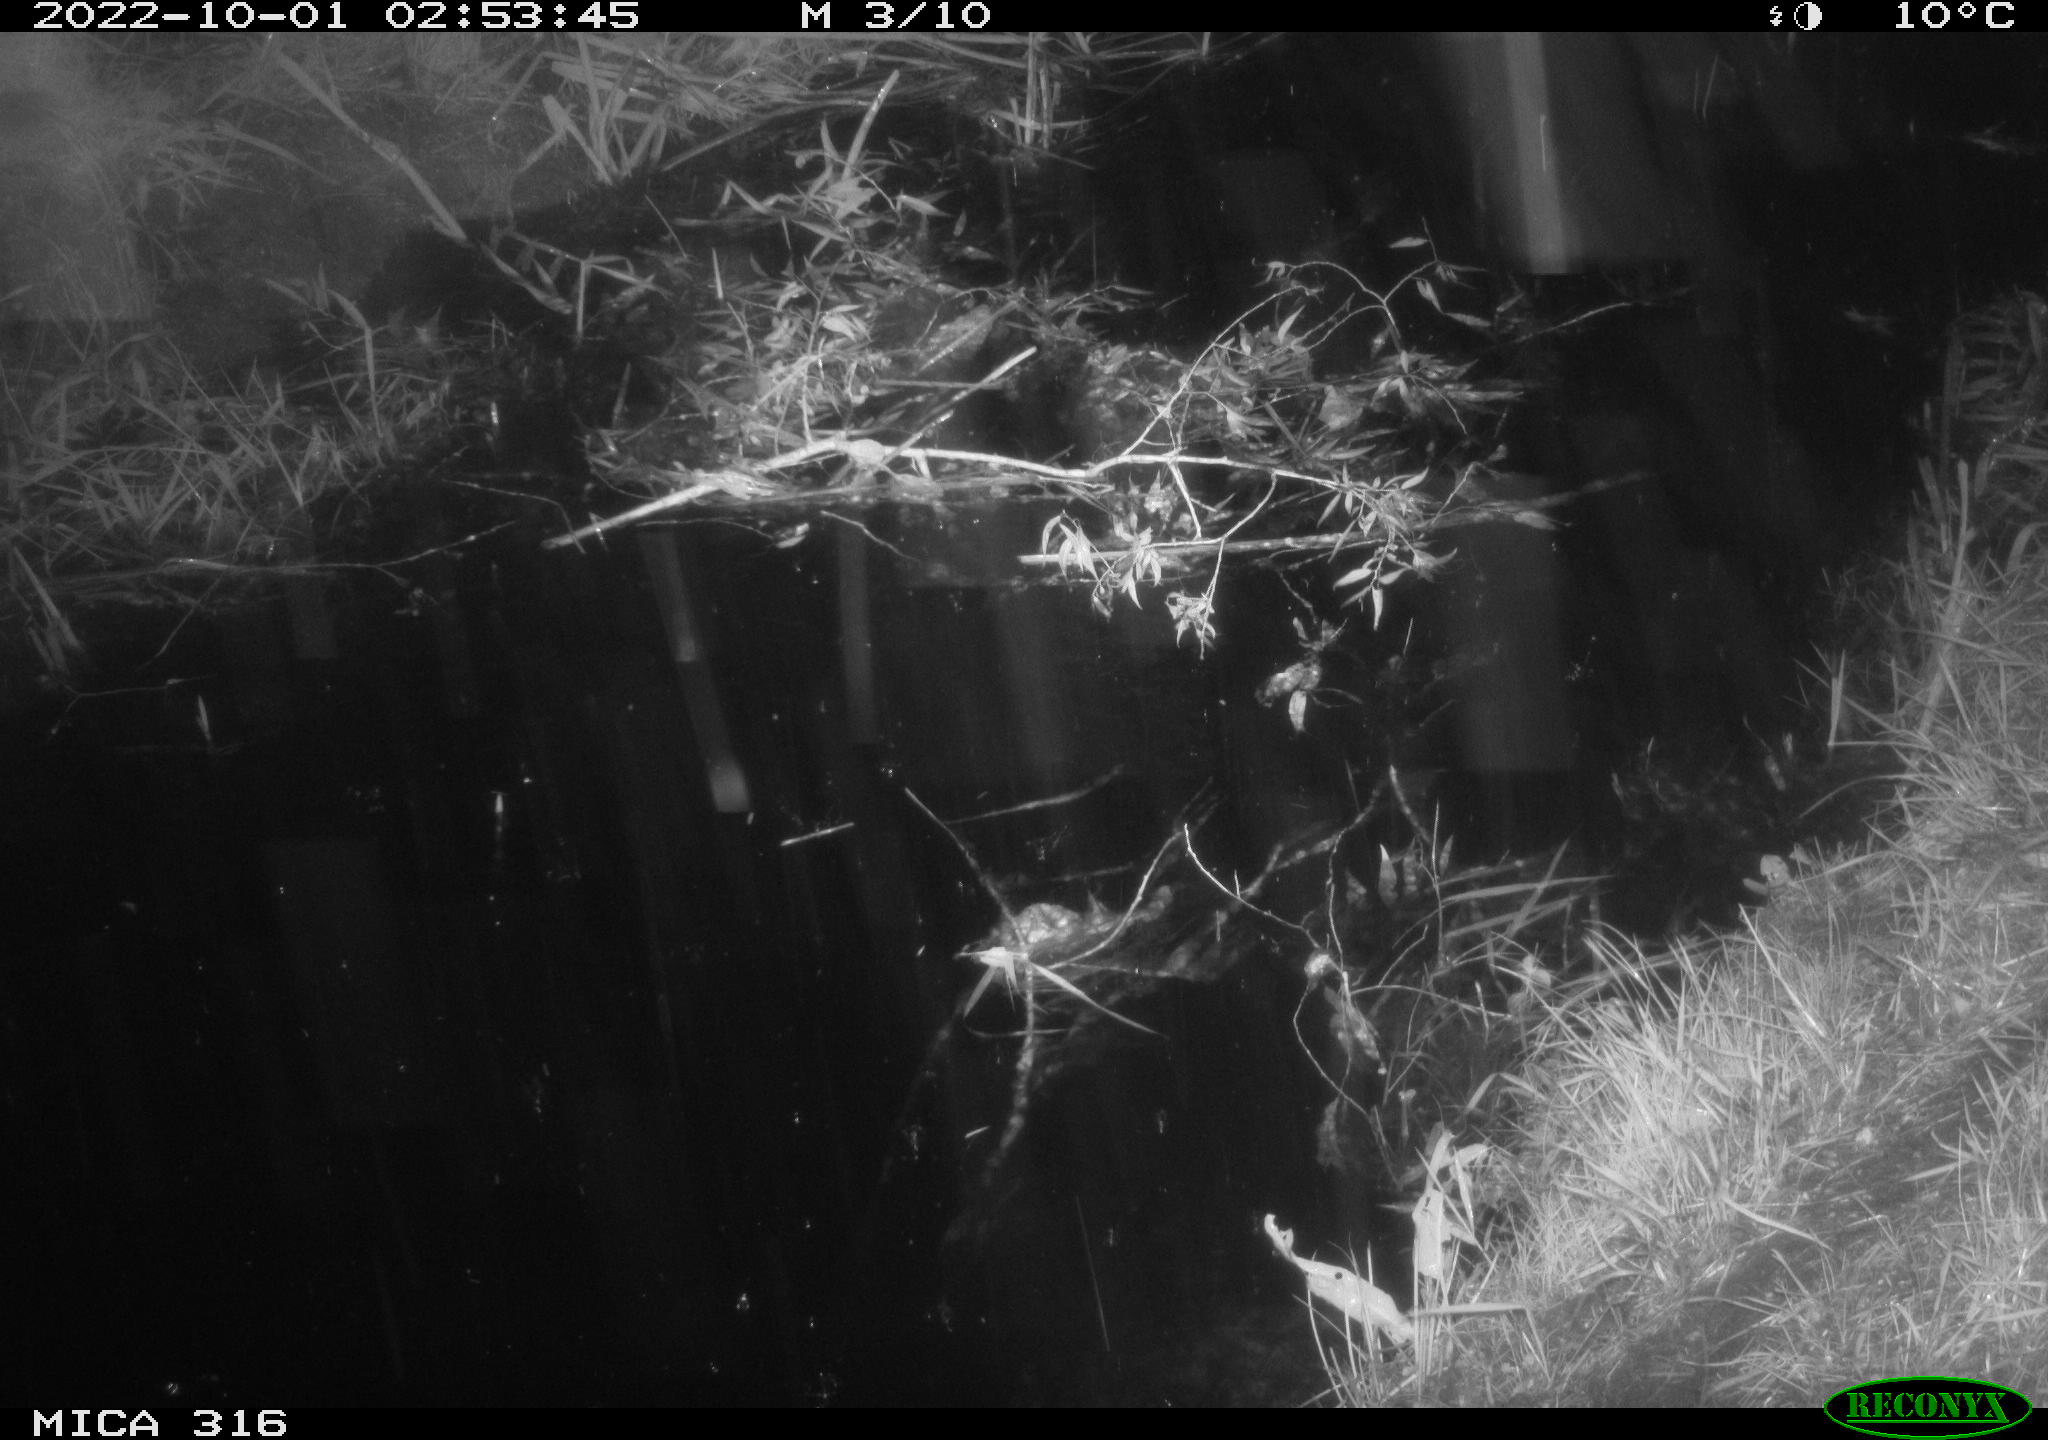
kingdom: Animalia
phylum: Chordata
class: Mammalia
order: Carnivora
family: Canidae
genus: Vulpes
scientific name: Vulpes vulpes
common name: Red fox
